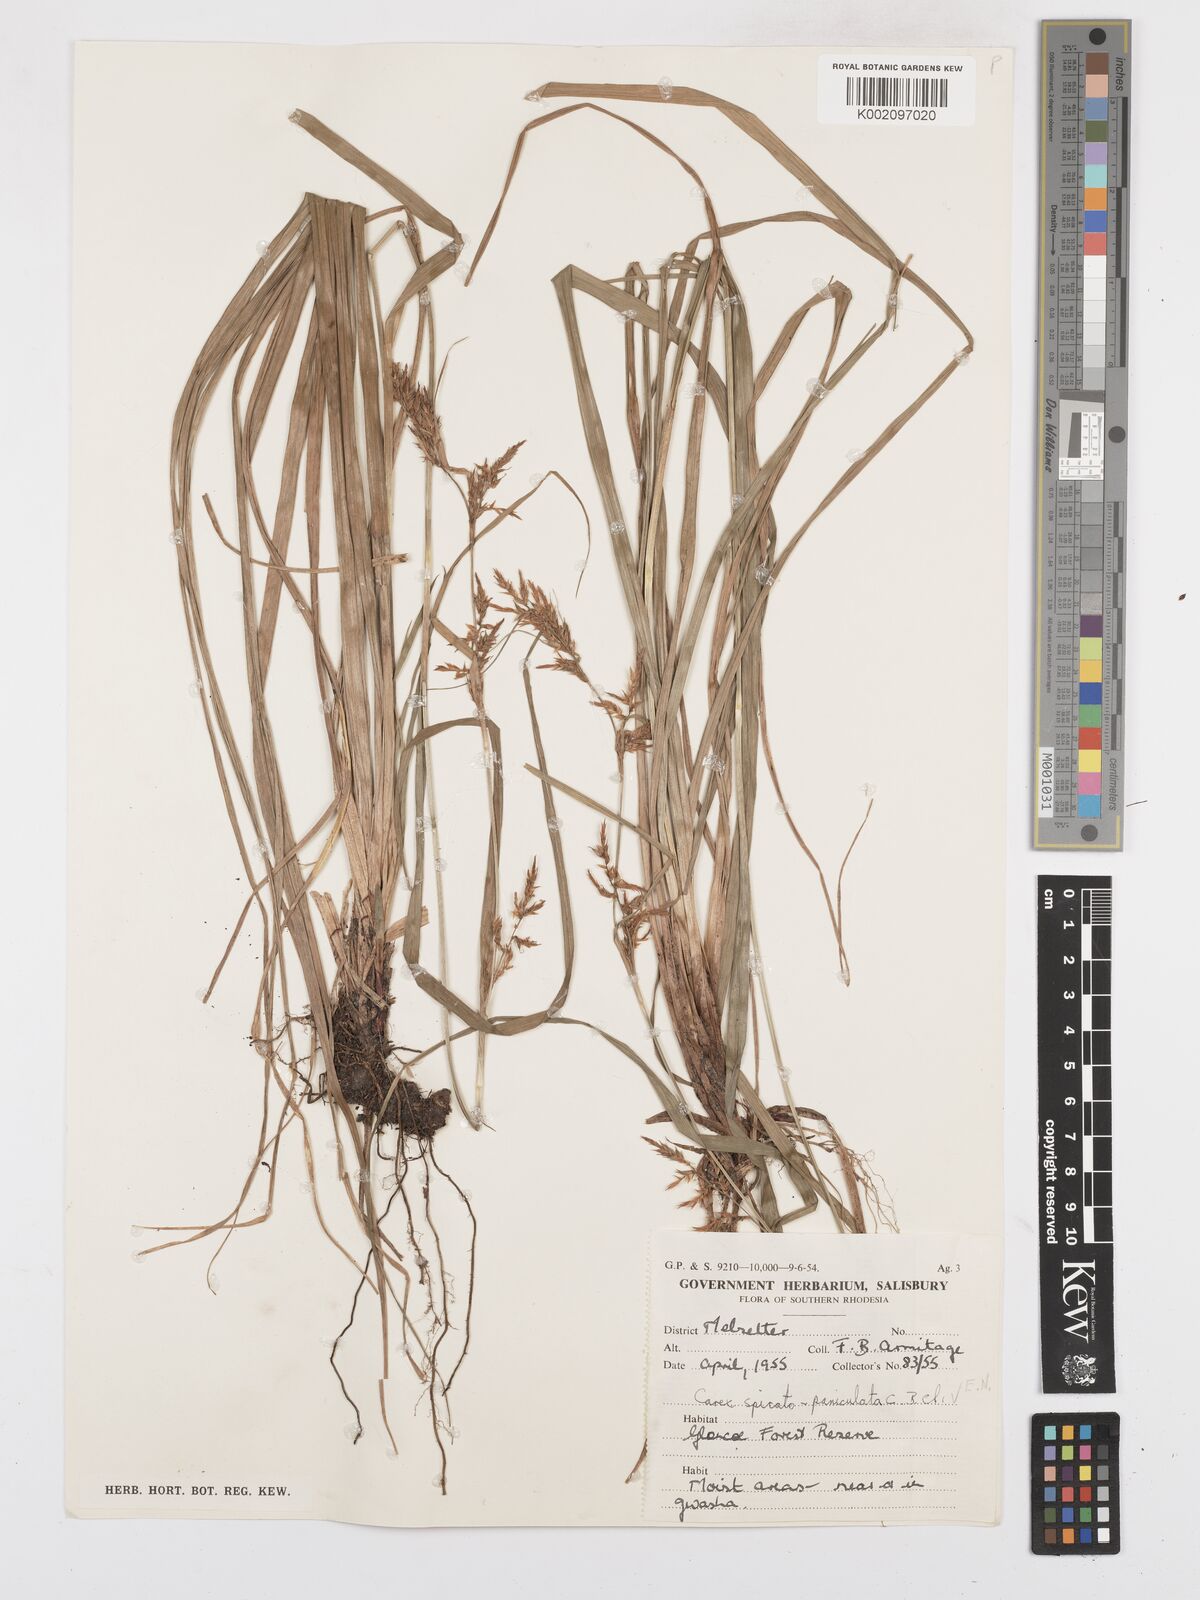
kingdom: Plantae
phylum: Tracheophyta
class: Liliopsida
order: Poales
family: Cyperaceae
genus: Carex
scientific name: Carex spicatopaniculata
